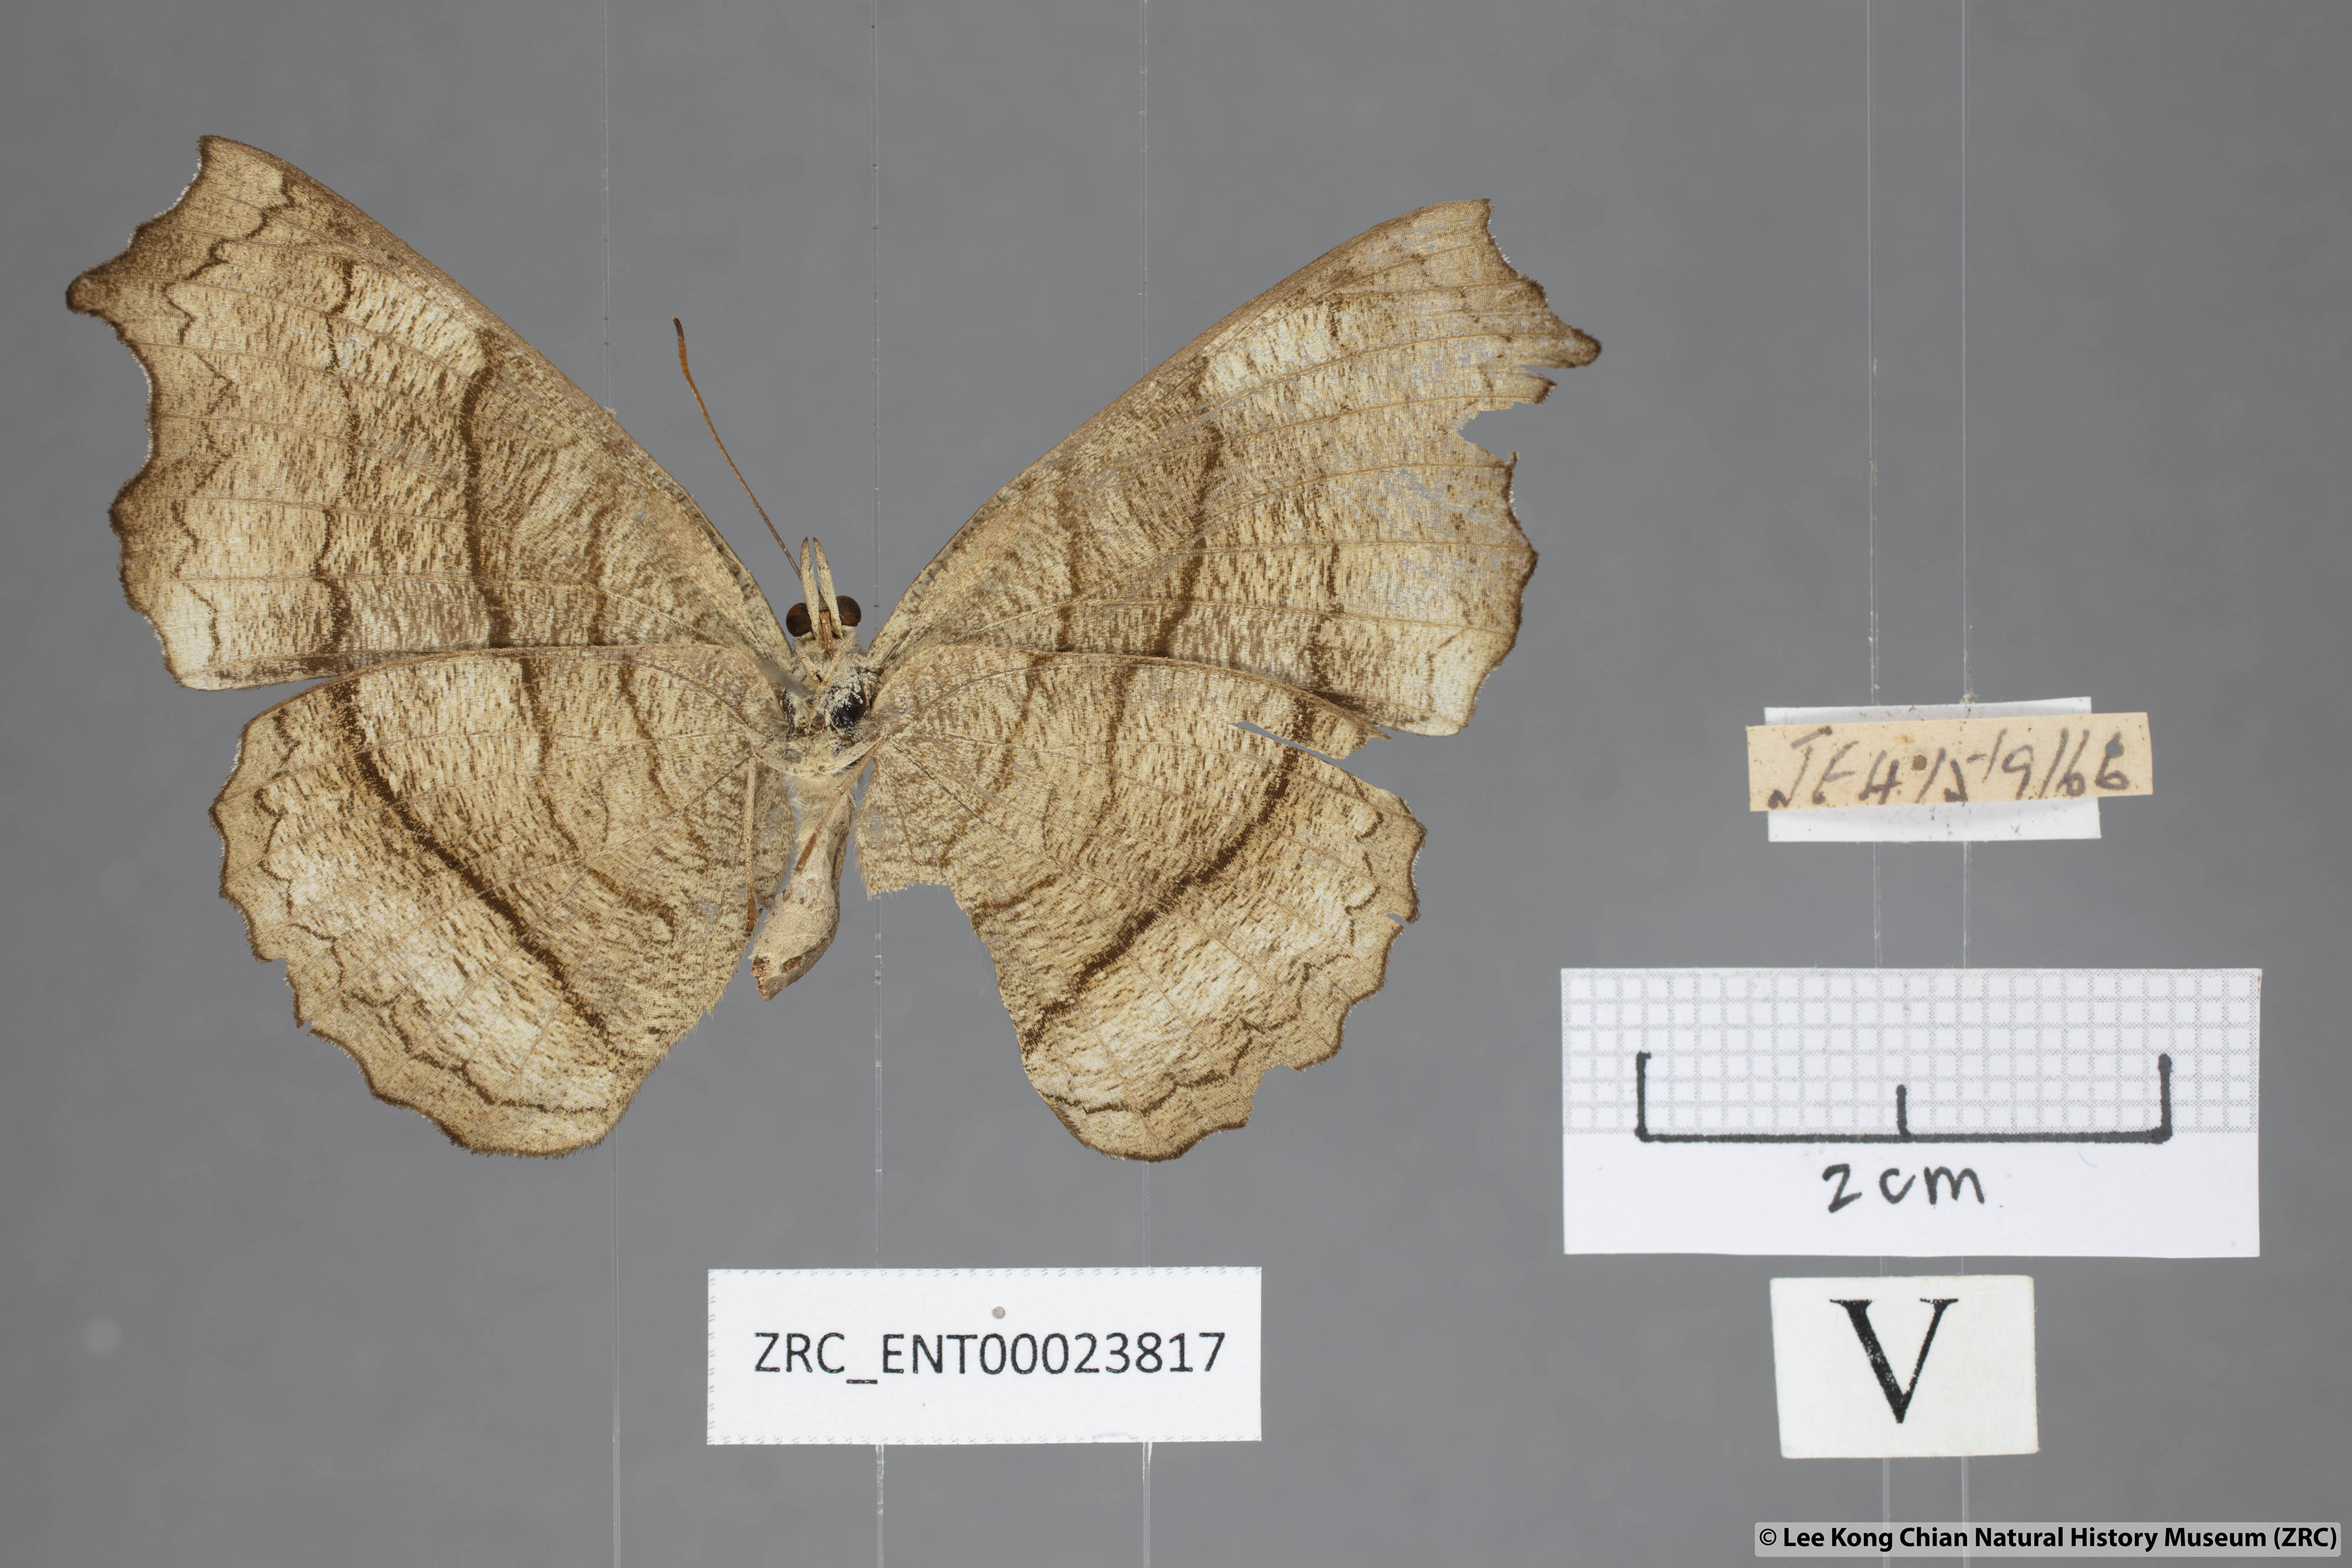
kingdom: Animalia
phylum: Arthropoda
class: Insecta
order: Lepidoptera
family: Nymphalidae
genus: Laringa
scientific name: Laringa castelnaui
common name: Blue dandy
